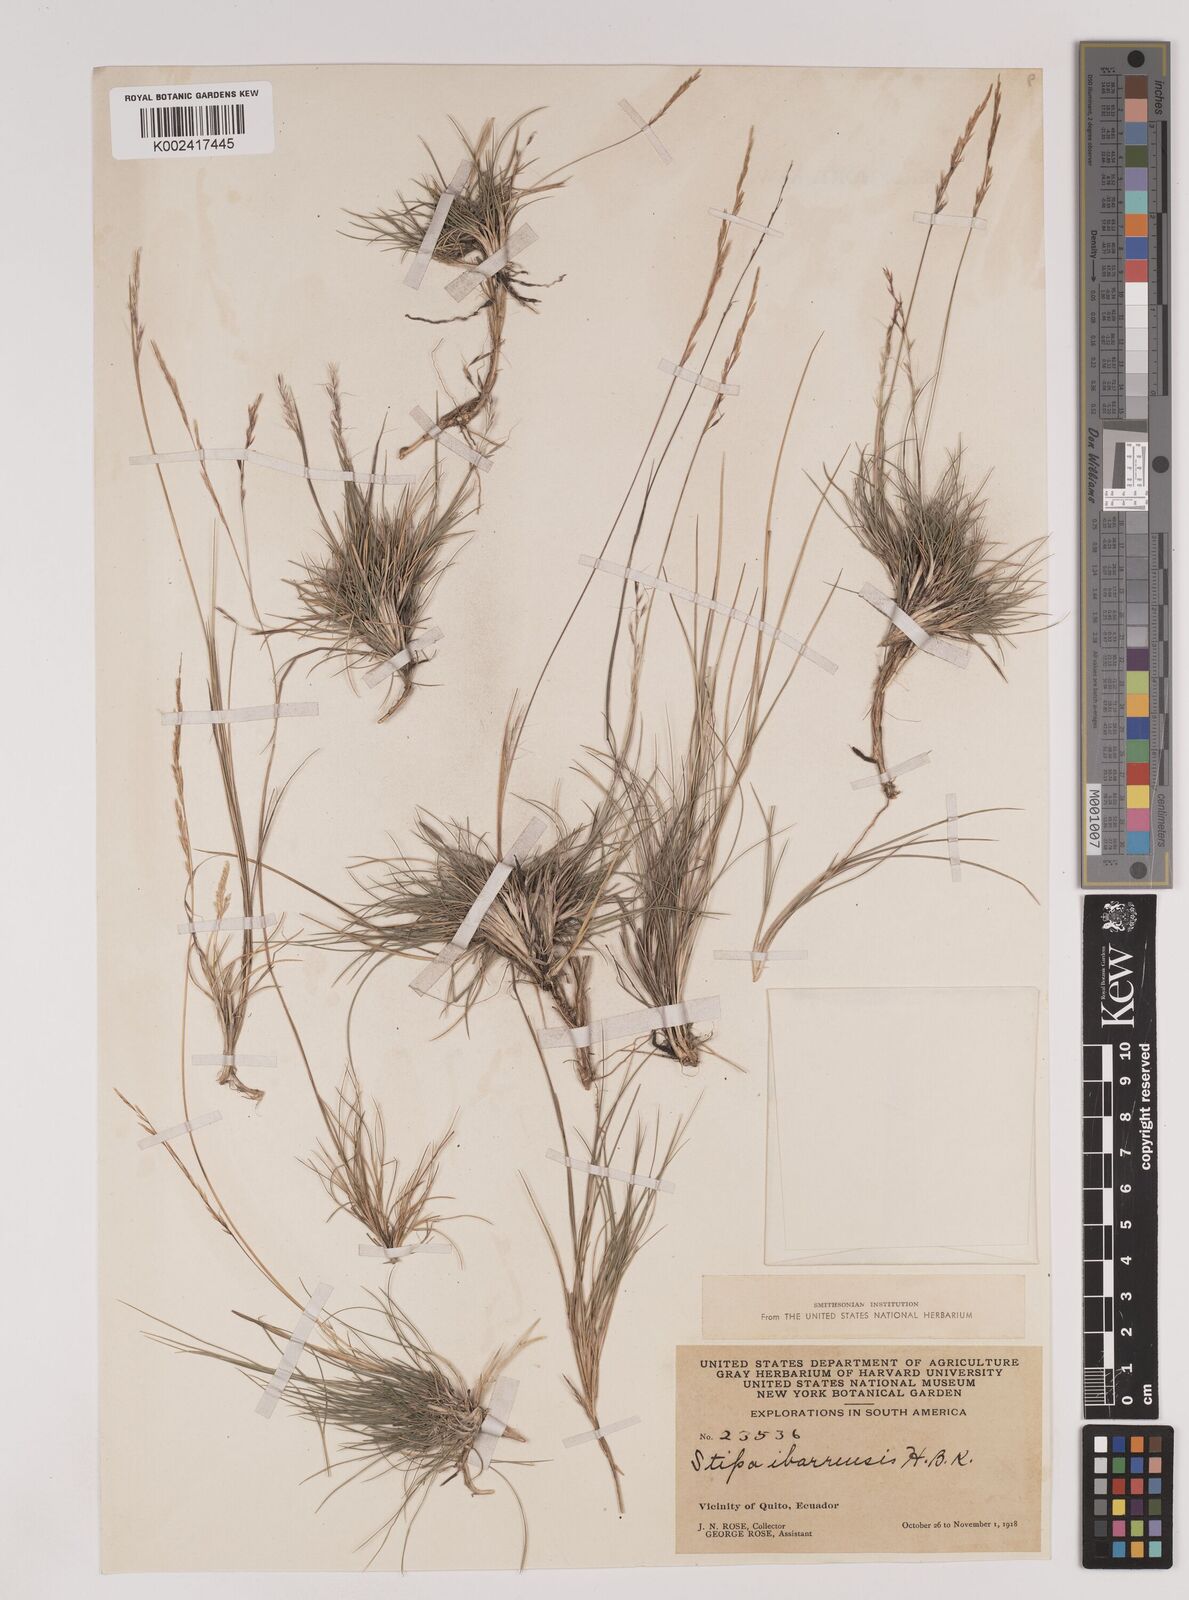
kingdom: Plantae
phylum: Tracheophyta
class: Liliopsida
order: Poales
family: Poaceae
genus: Nassella
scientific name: Nassella ibarrensis
